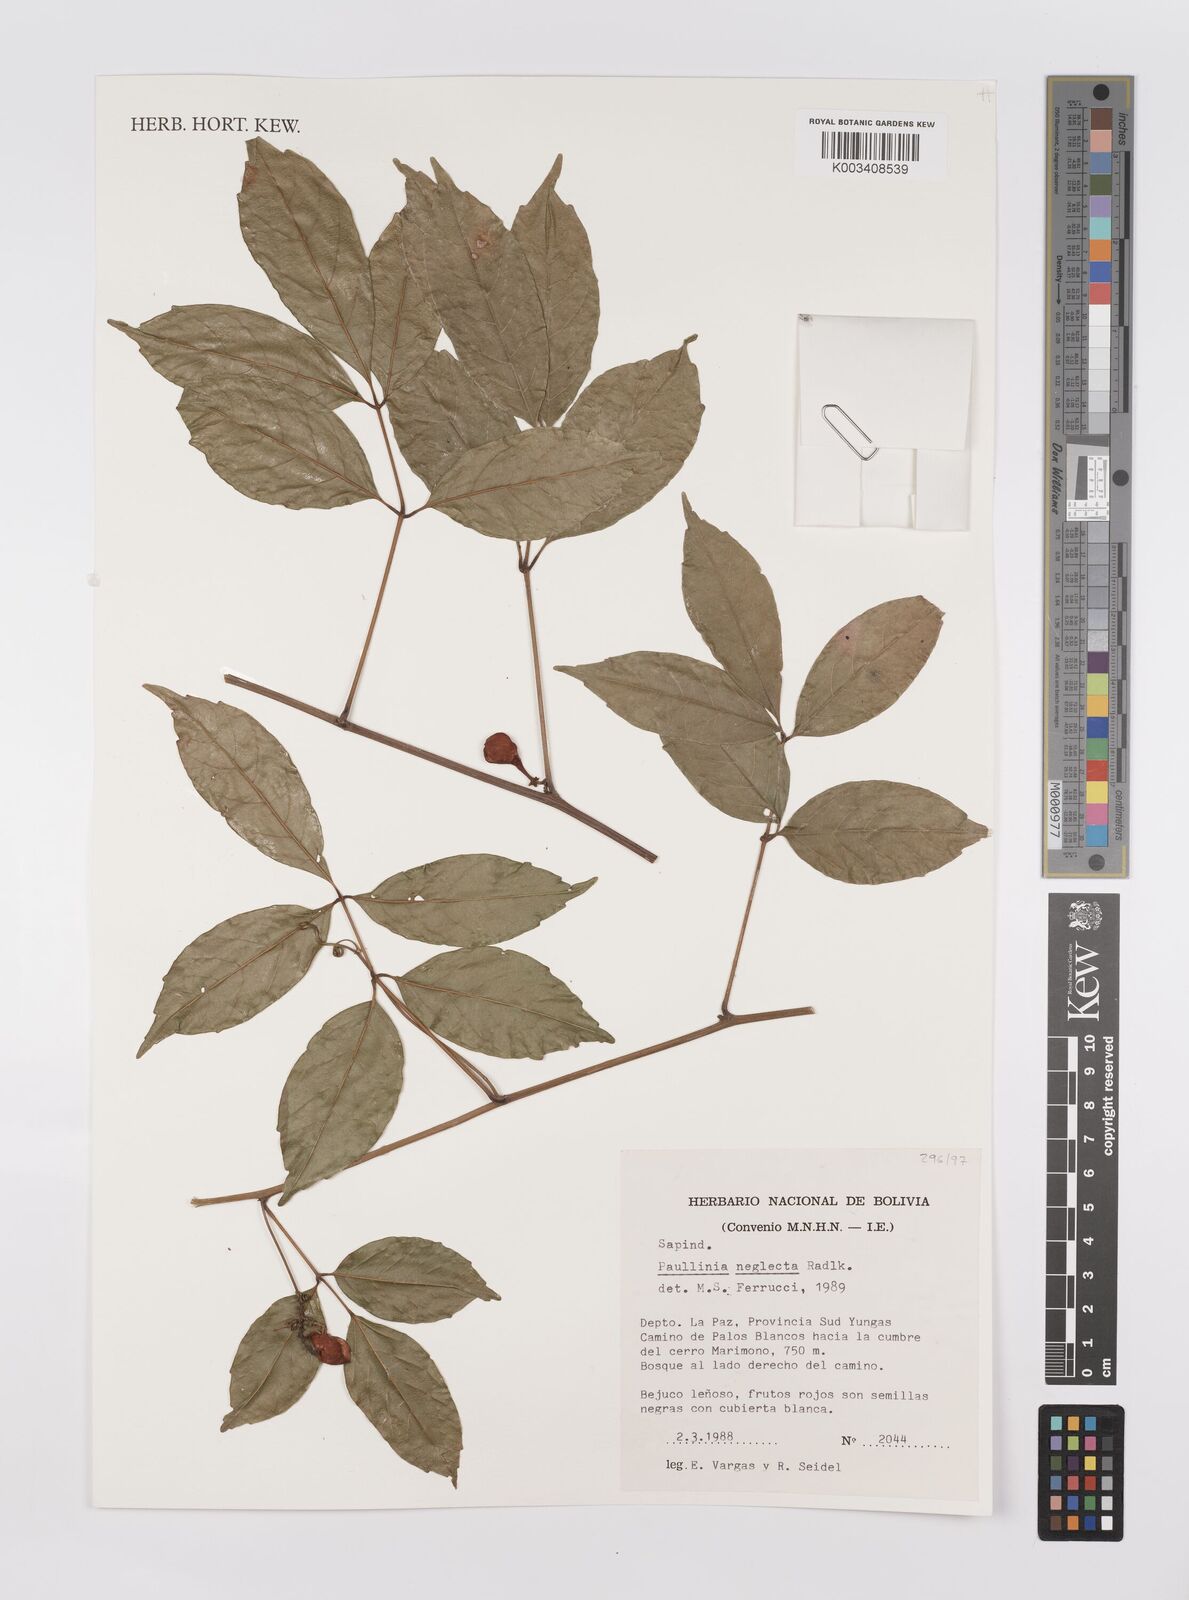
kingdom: Plantae
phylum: Tracheophyta
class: Magnoliopsida
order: Sapindales
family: Sapindaceae
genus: Paullinia
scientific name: Paullinia elegans
